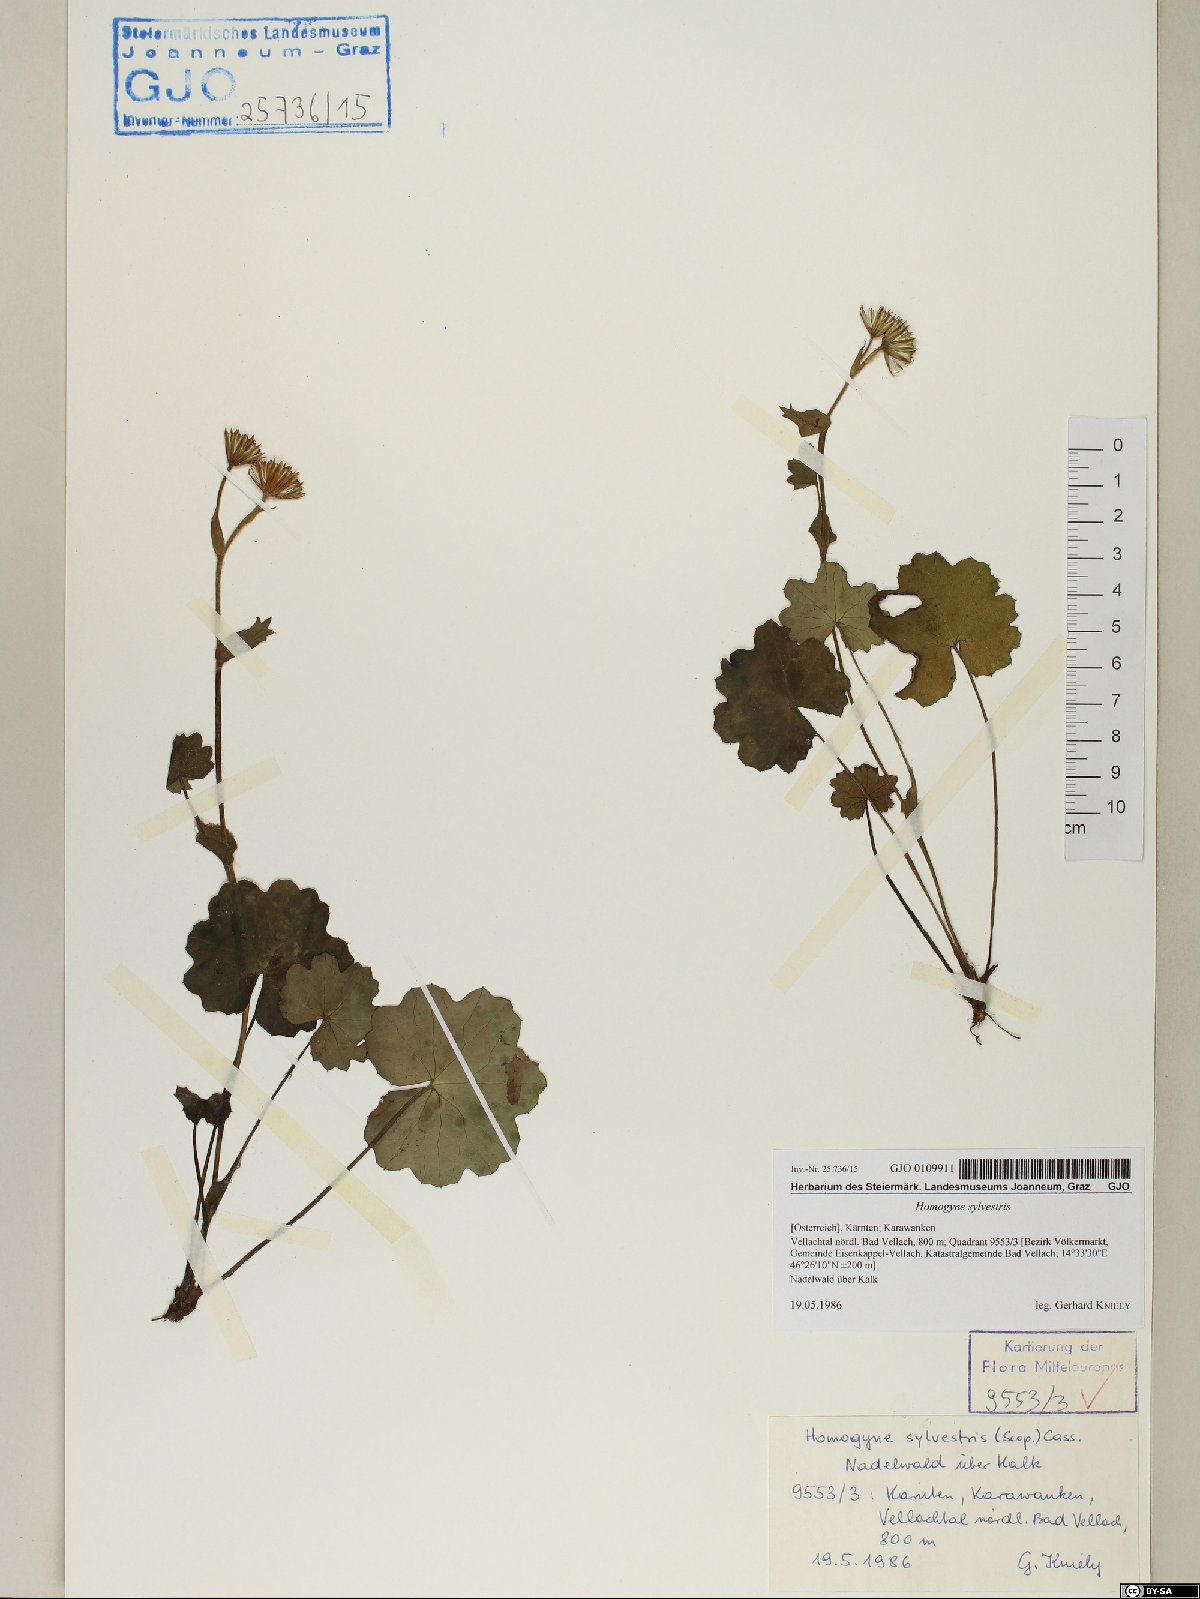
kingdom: Plantae
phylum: Tracheophyta
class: Magnoliopsida
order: Asterales
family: Asteraceae
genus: Homogyne
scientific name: Homogyne sylvestris
